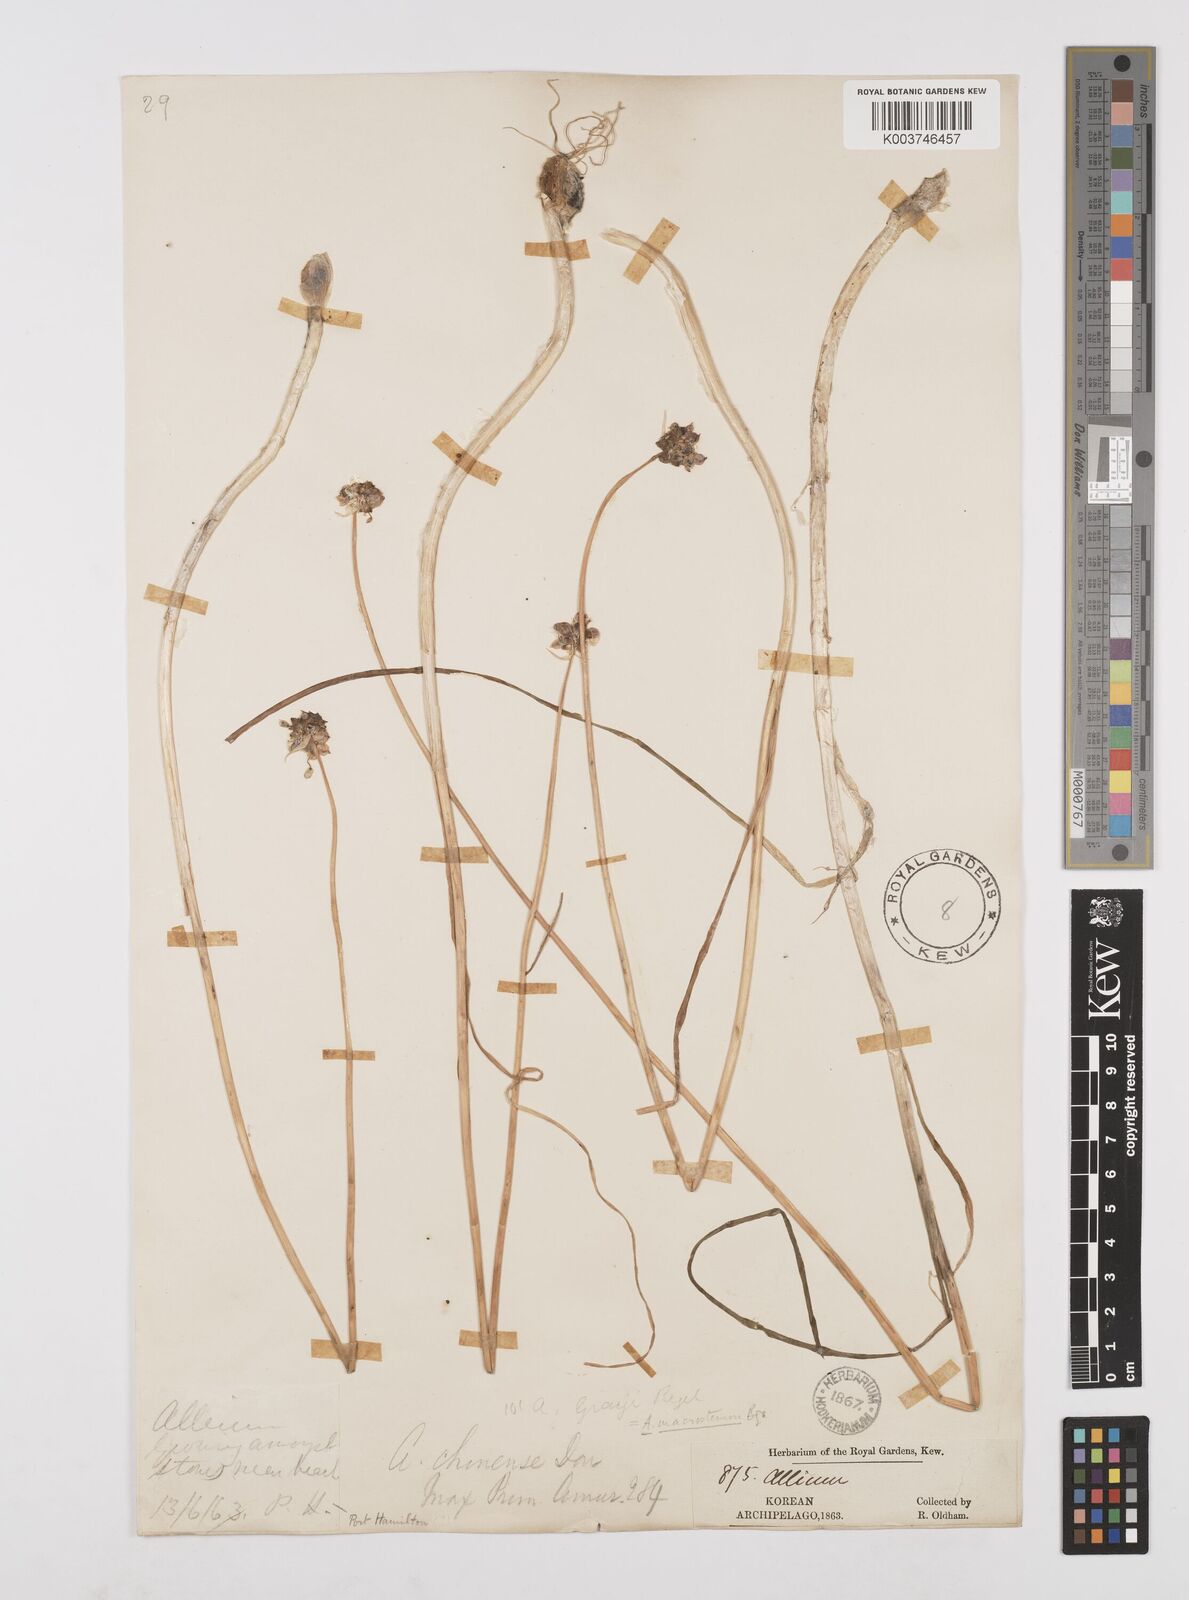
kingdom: Plantae
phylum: Tracheophyta
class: Liliopsida
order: Asparagales
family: Amaryllidaceae
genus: Allium
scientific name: Allium macrostemon
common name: Chinese garlic
